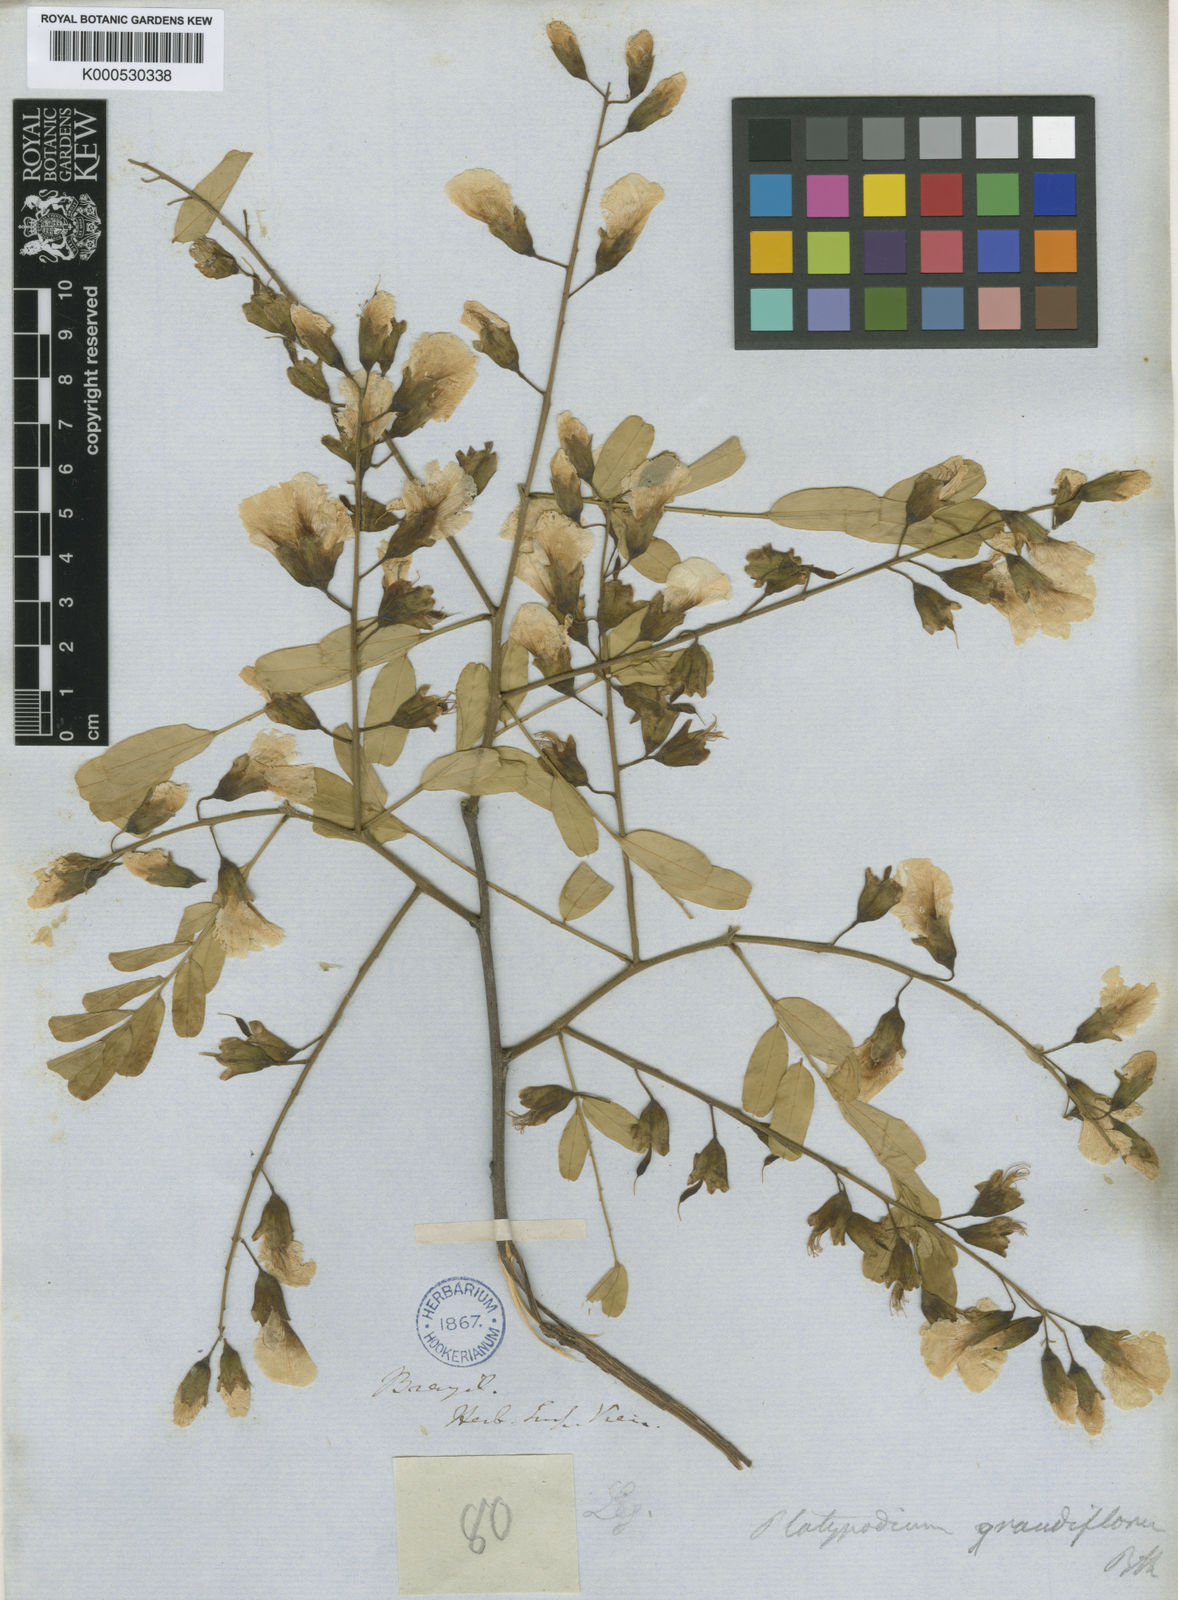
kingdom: Plantae
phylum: Tracheophyta
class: Magnoliopsida
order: Fabales
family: Fabaceae
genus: Platypodium
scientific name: Platypodium elegans
